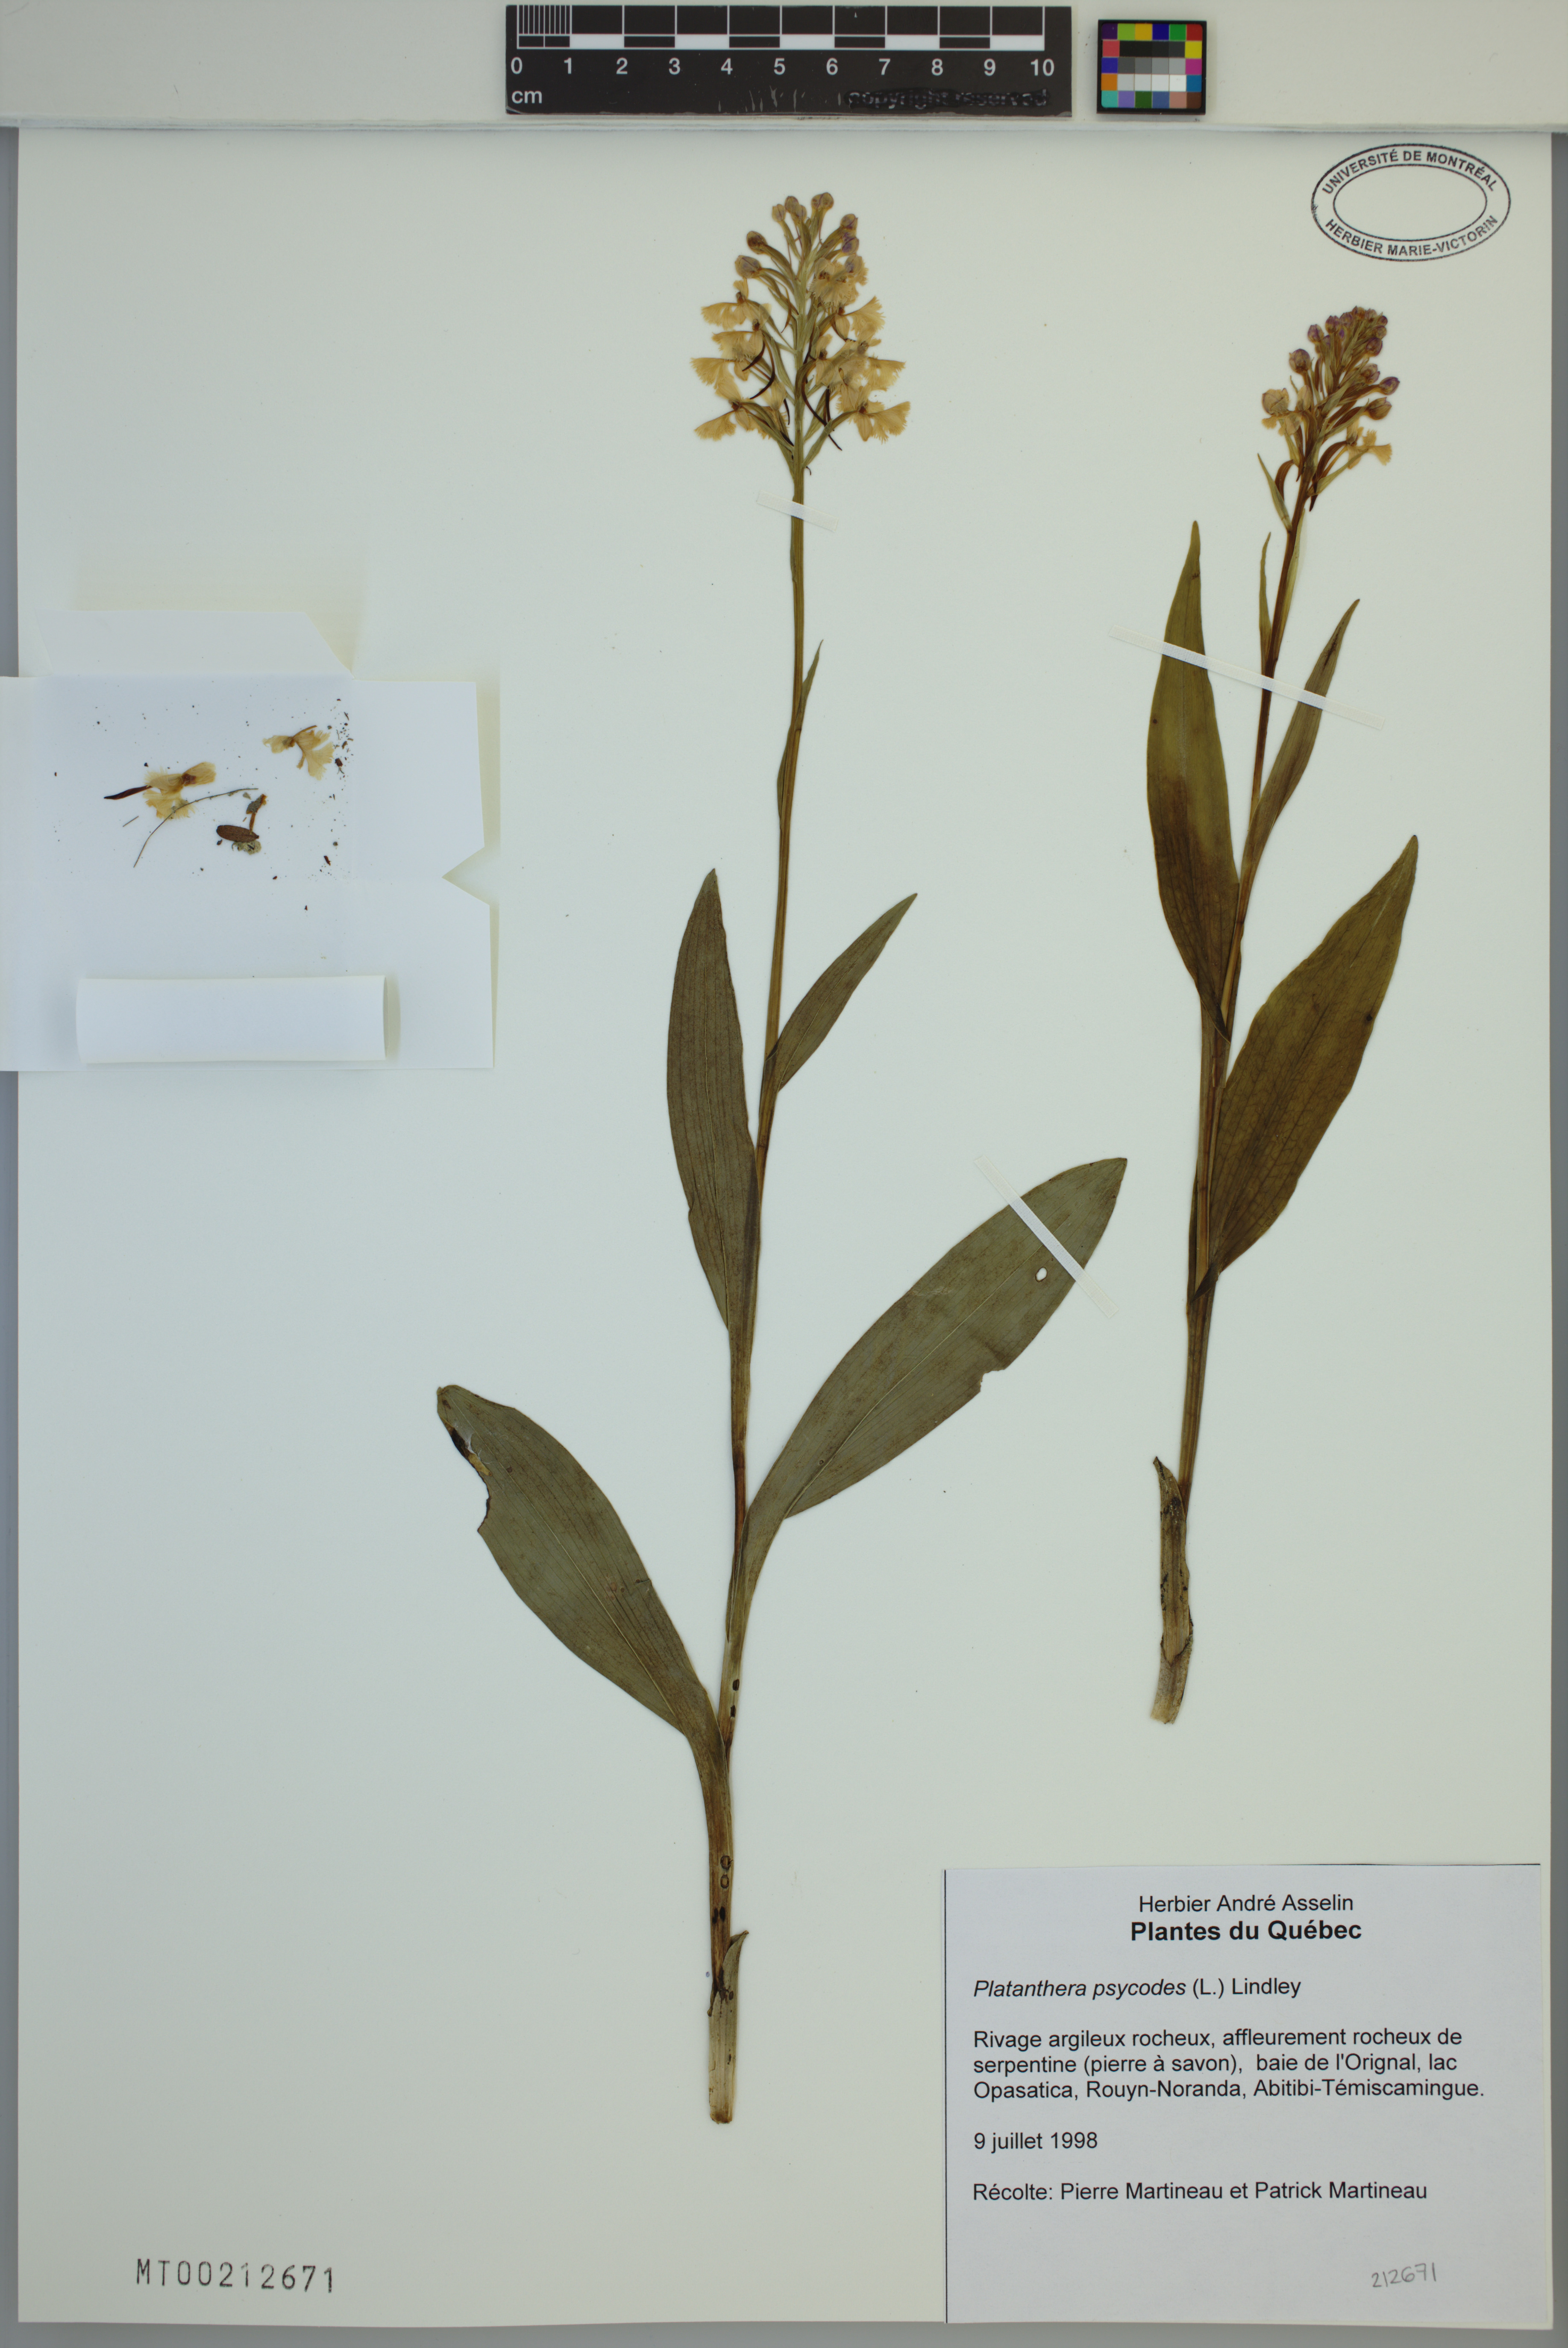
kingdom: Plantae
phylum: Tracheophyta
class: Liliopsida
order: Asparagales
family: Orchidaceae
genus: Platanthera
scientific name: Platanthera psycodes
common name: Lesser purple fringed orchid
